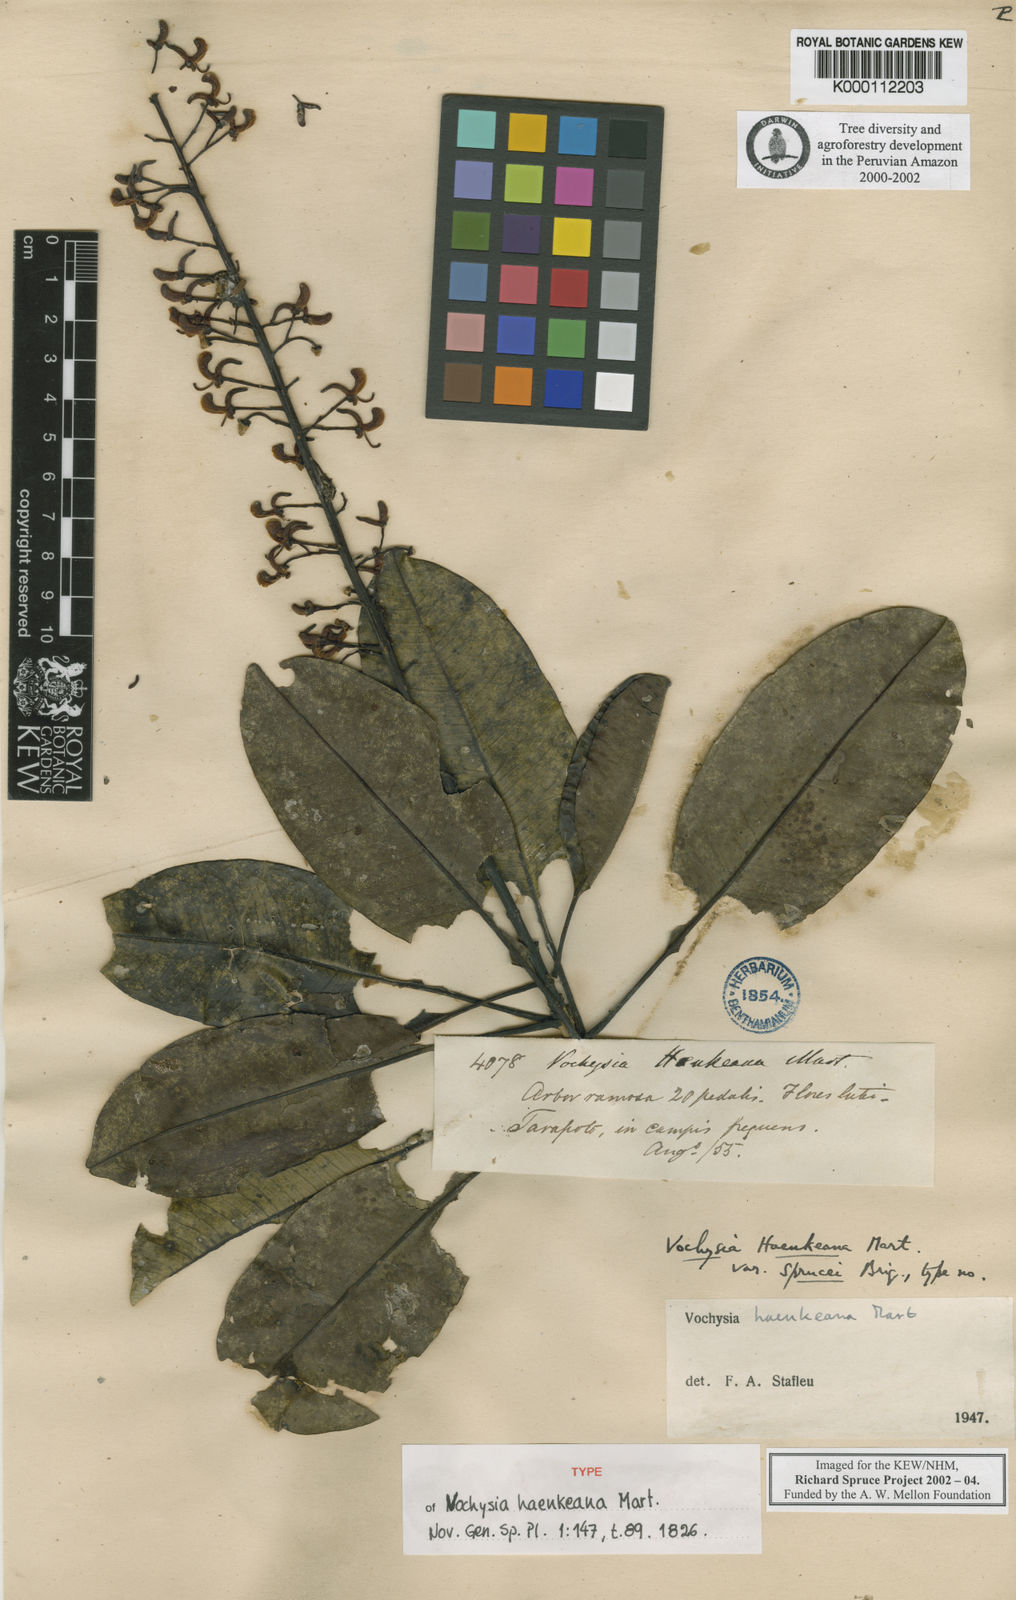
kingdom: Plantae
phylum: Tracheophyta
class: Magnoliopsida
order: Myrtales
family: Vochysiaceae
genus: Vochysia
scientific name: Vochysia haenkeana
